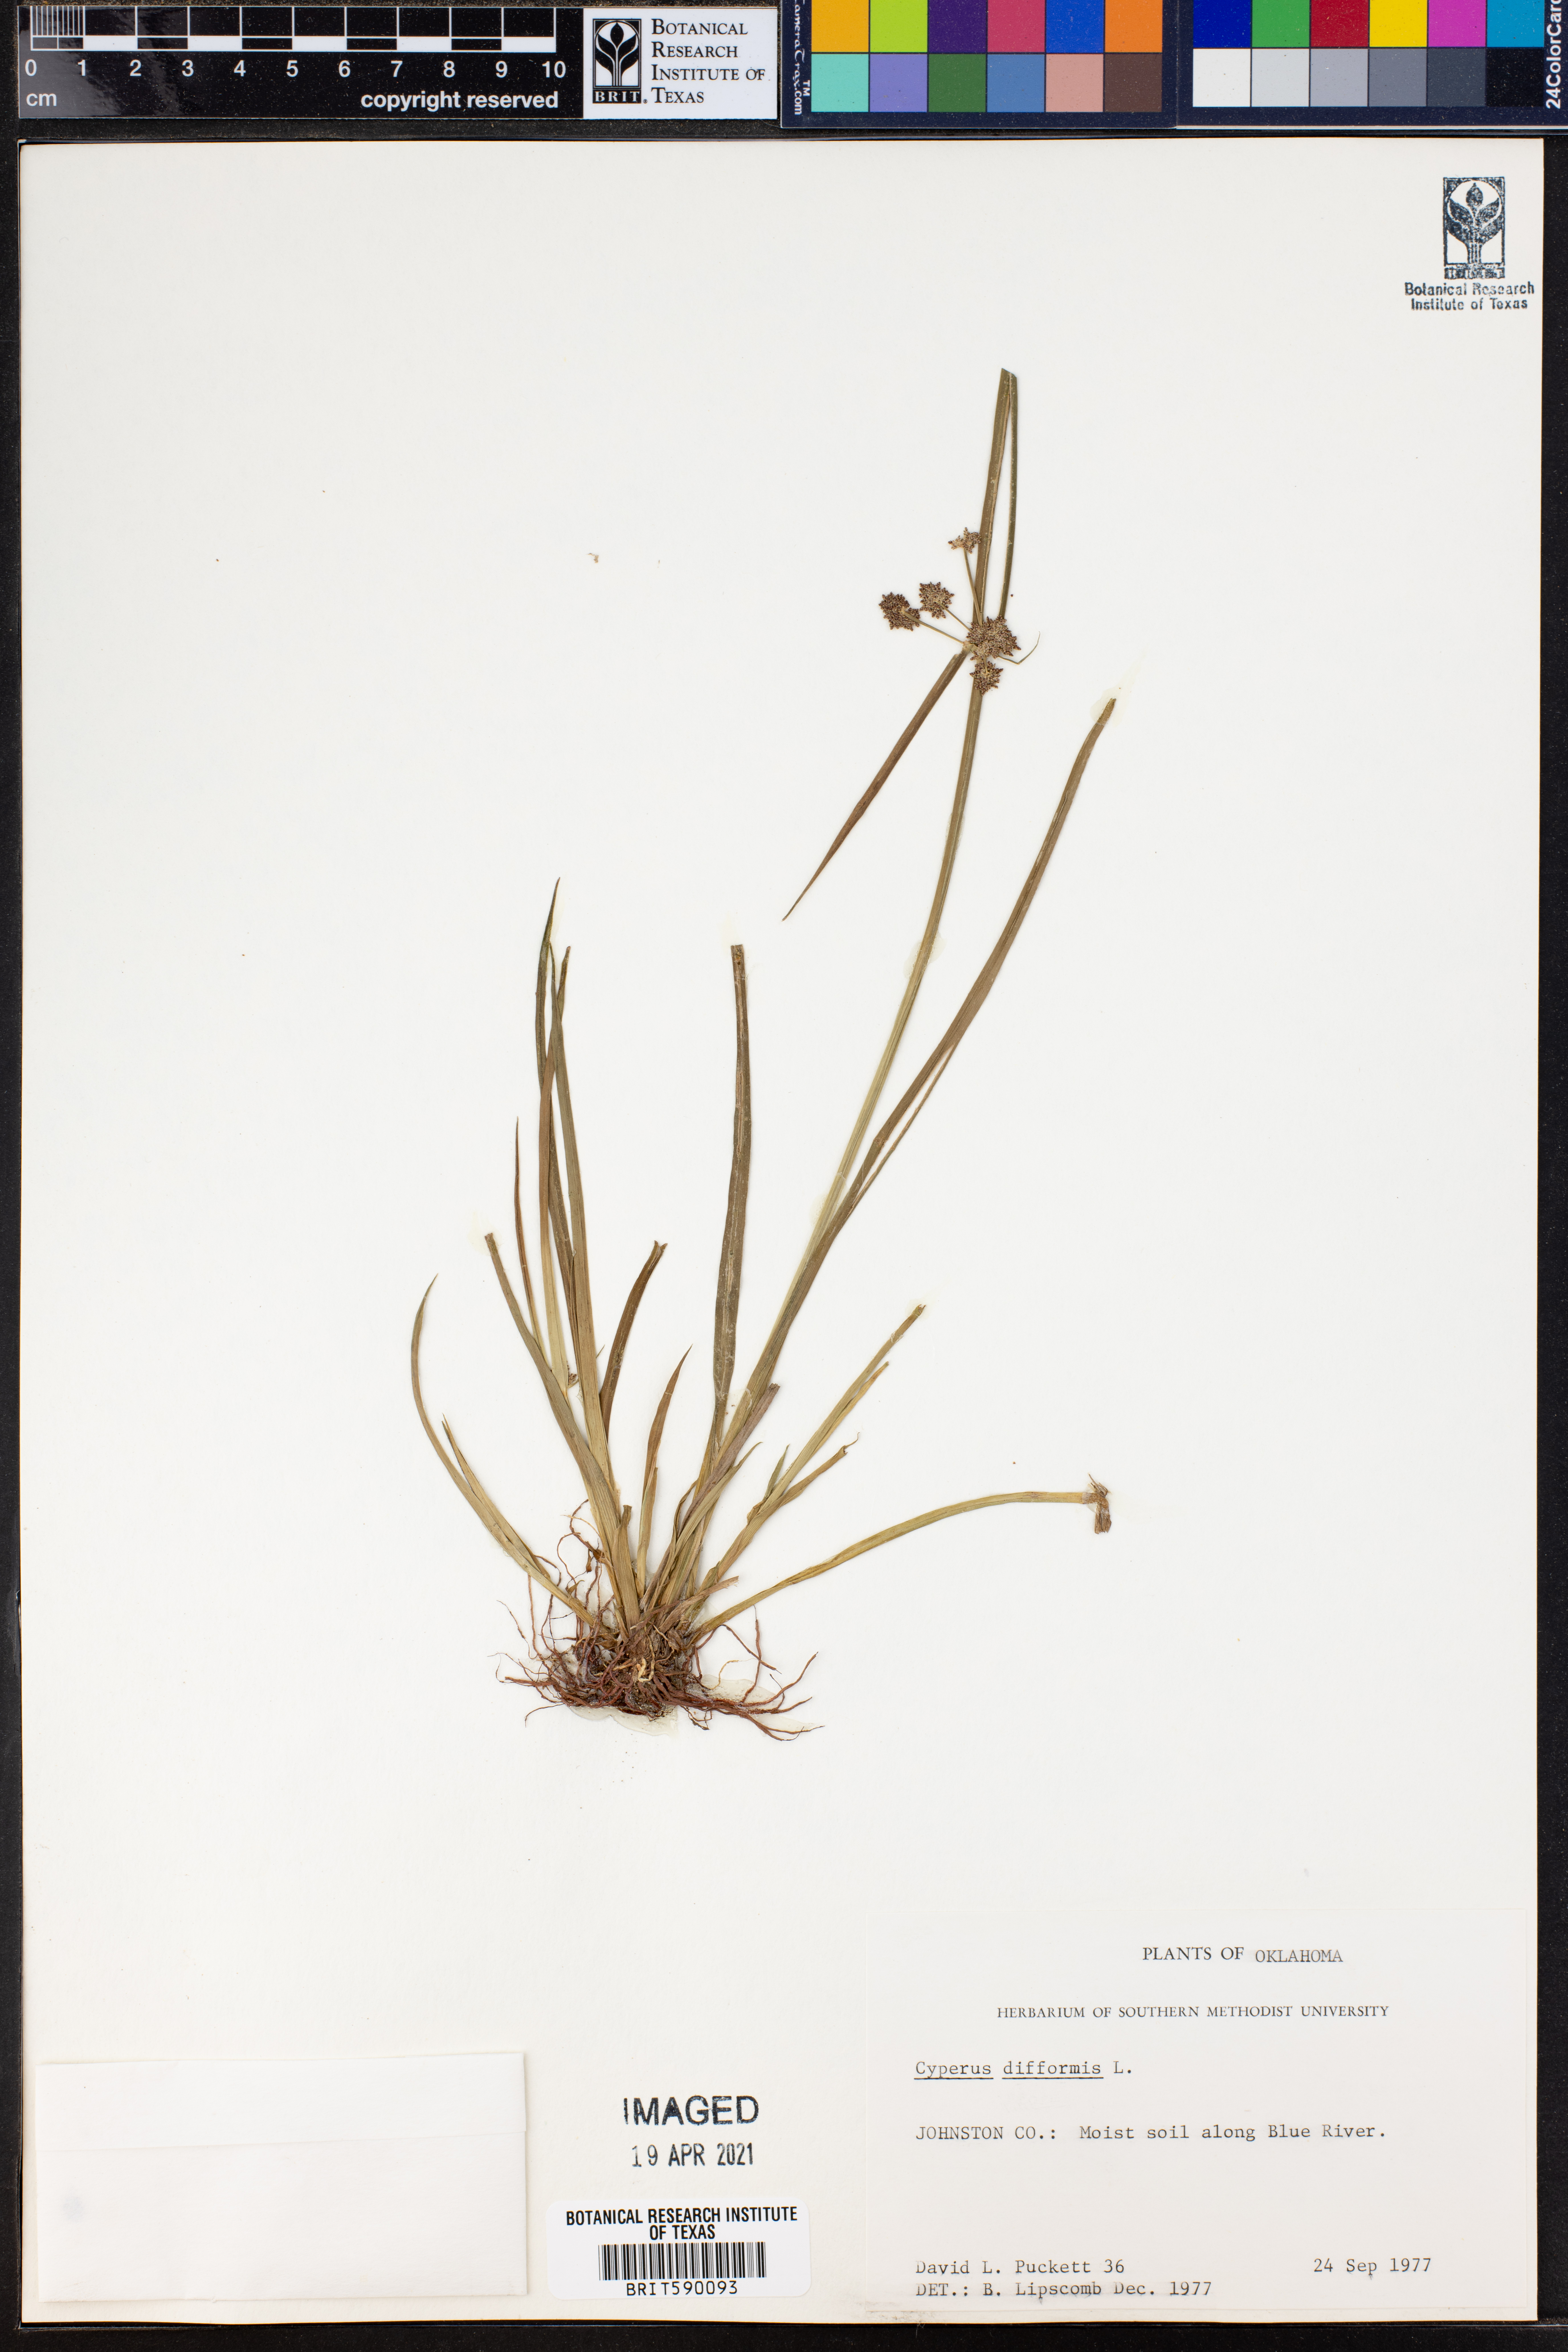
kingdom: Plantae
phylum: Tracheophyta
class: Liliopsida
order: Poales
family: Cyperaceae
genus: Cyperus
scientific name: Cyperus difformis
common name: Variable flatsedge
